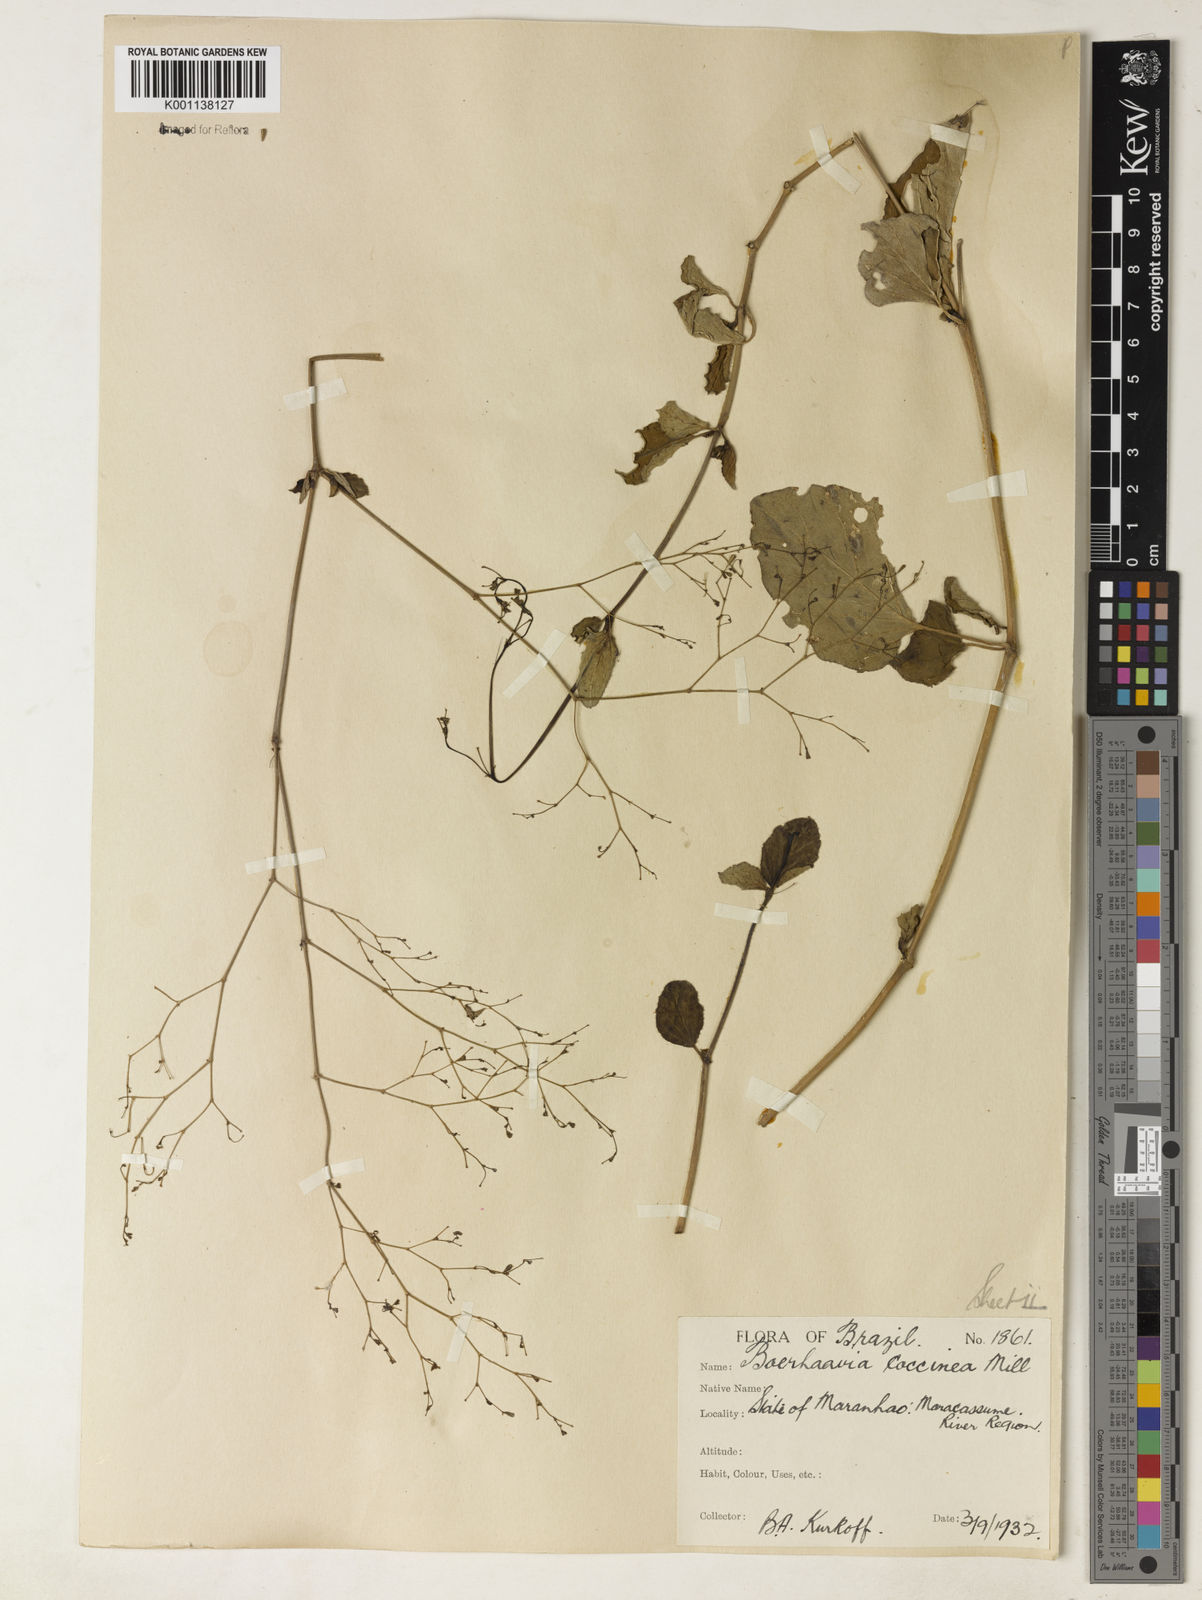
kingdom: Plantae
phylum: Tracheophyta
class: Magnoliopsida
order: Caryophyllales
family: Nyctaginaceae
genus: Boerhavia
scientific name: Boerhavia diffusa
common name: Red spiderling
